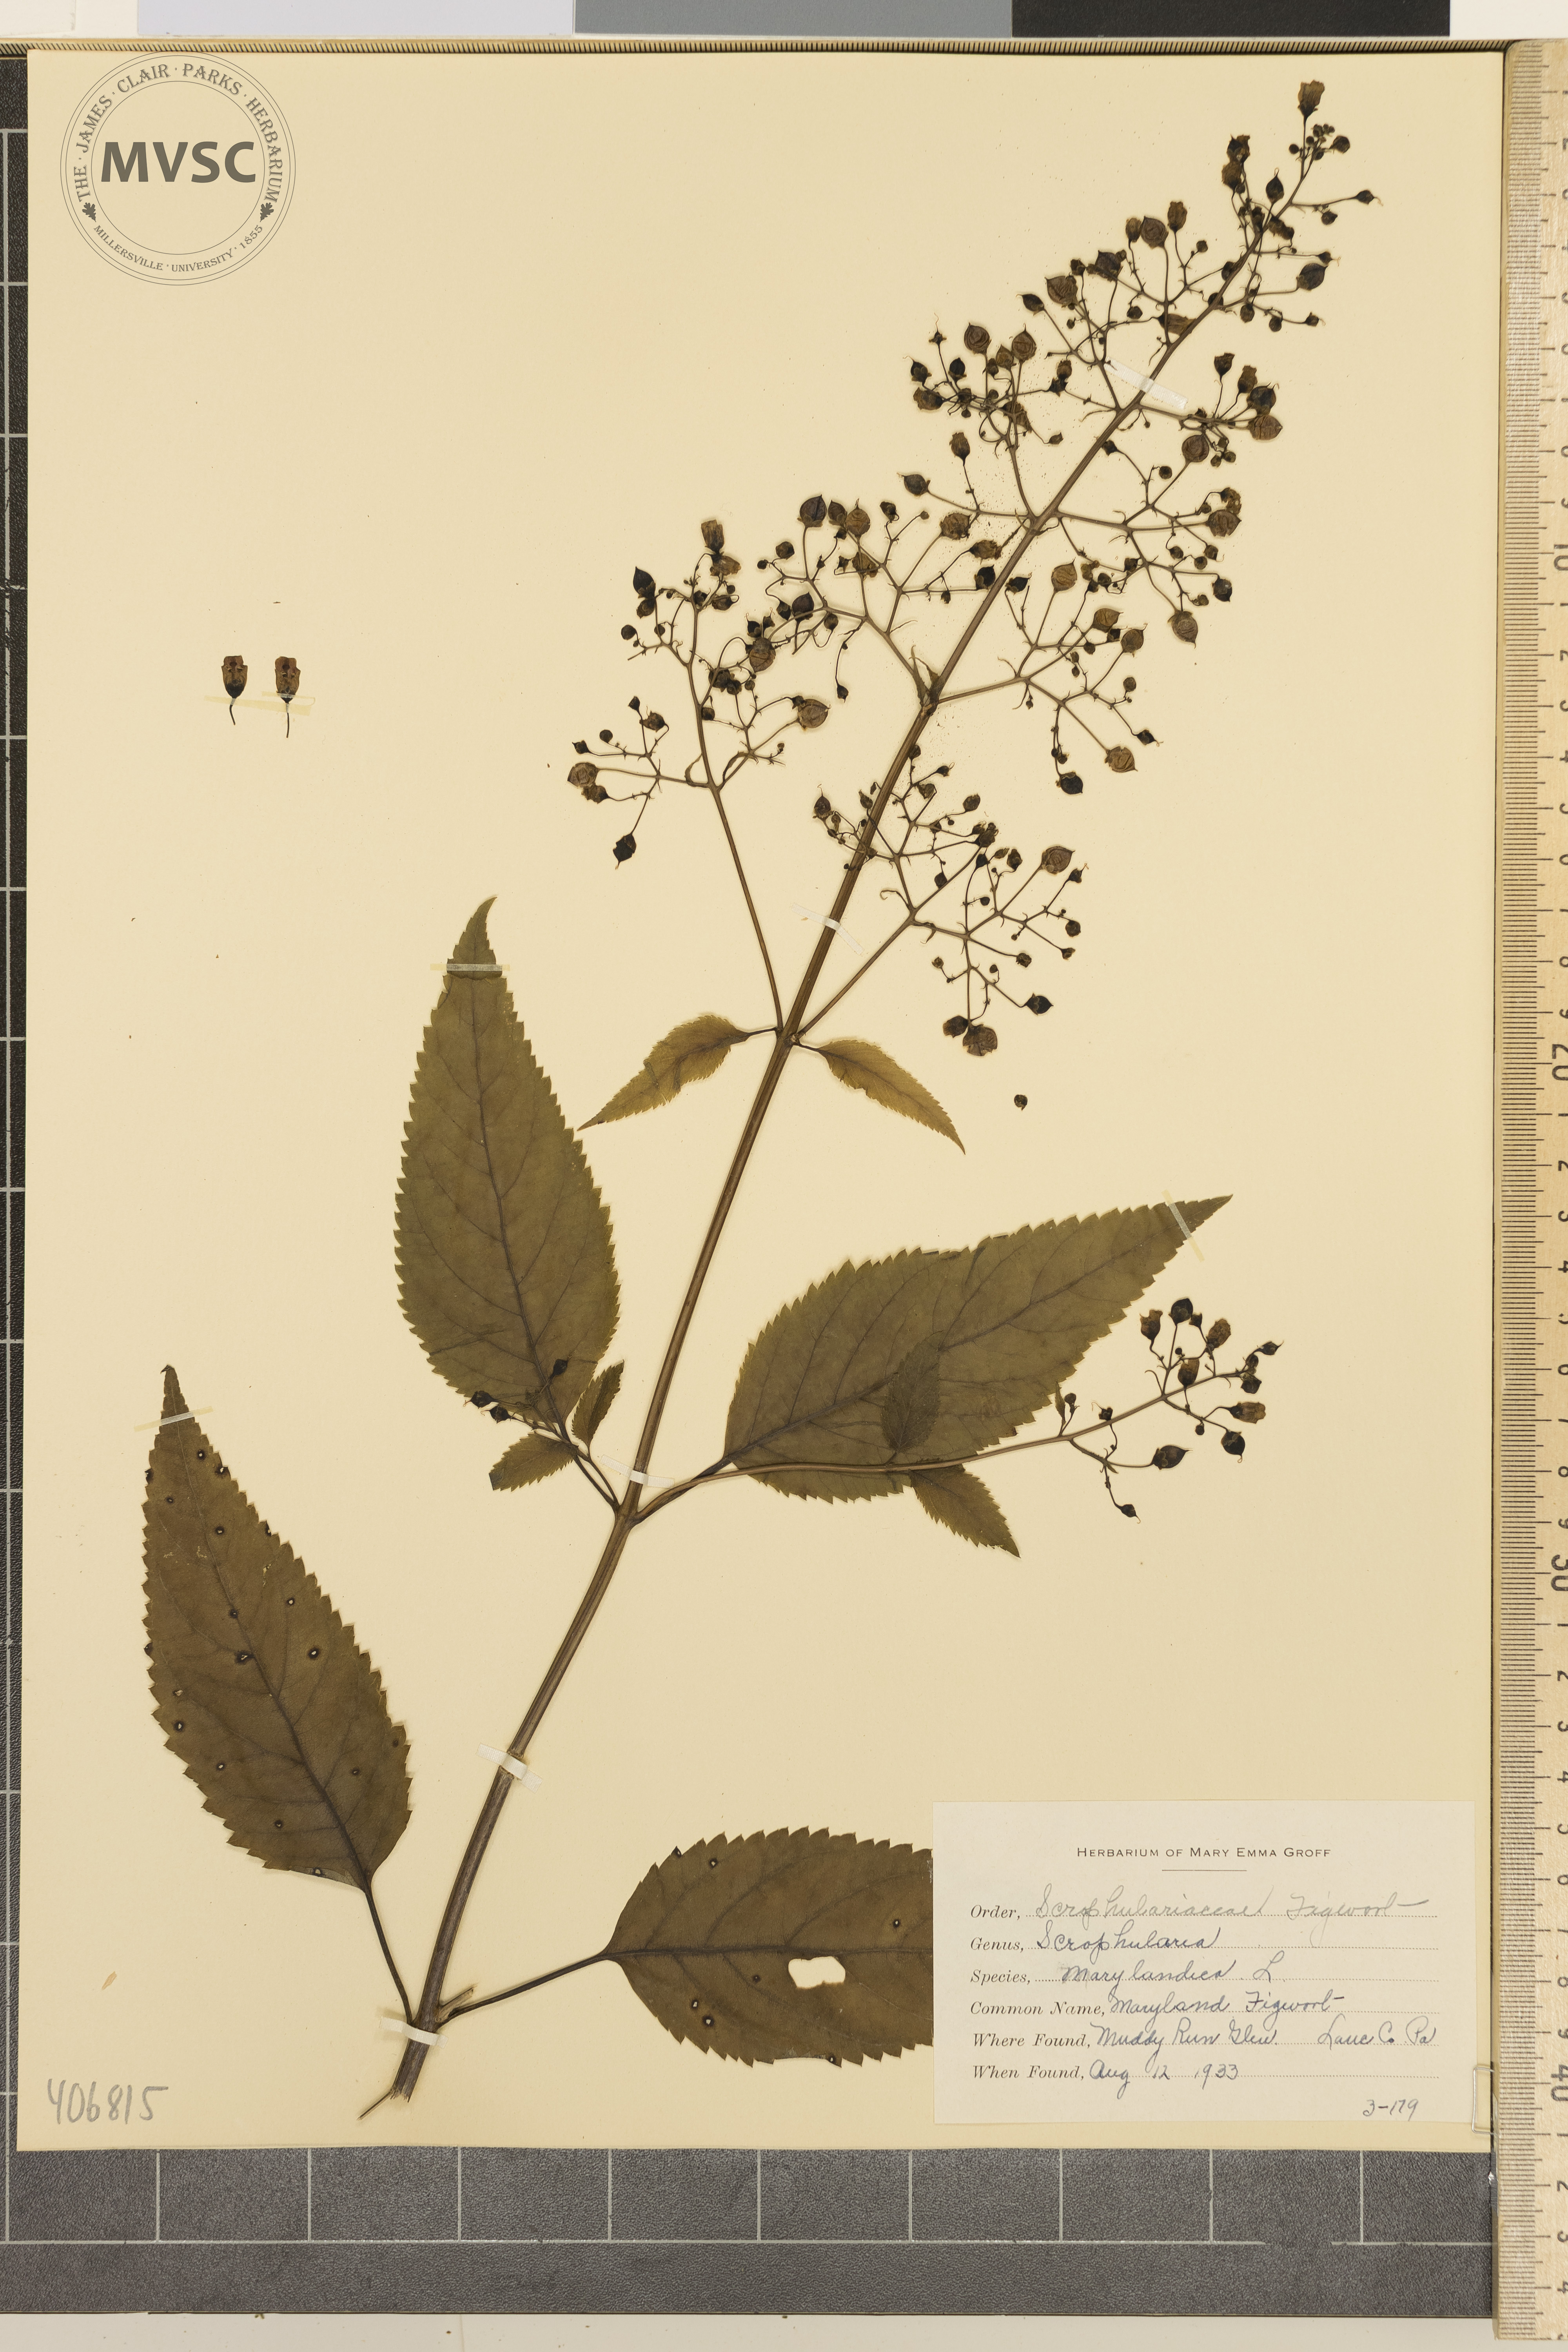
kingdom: Plantae
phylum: Tracheophyta
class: Magnoliopsida
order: Lamiales
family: Scrophulariaceae
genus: Scrophularia
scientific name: Scrophularia marilandica
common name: Maryland Figwort
